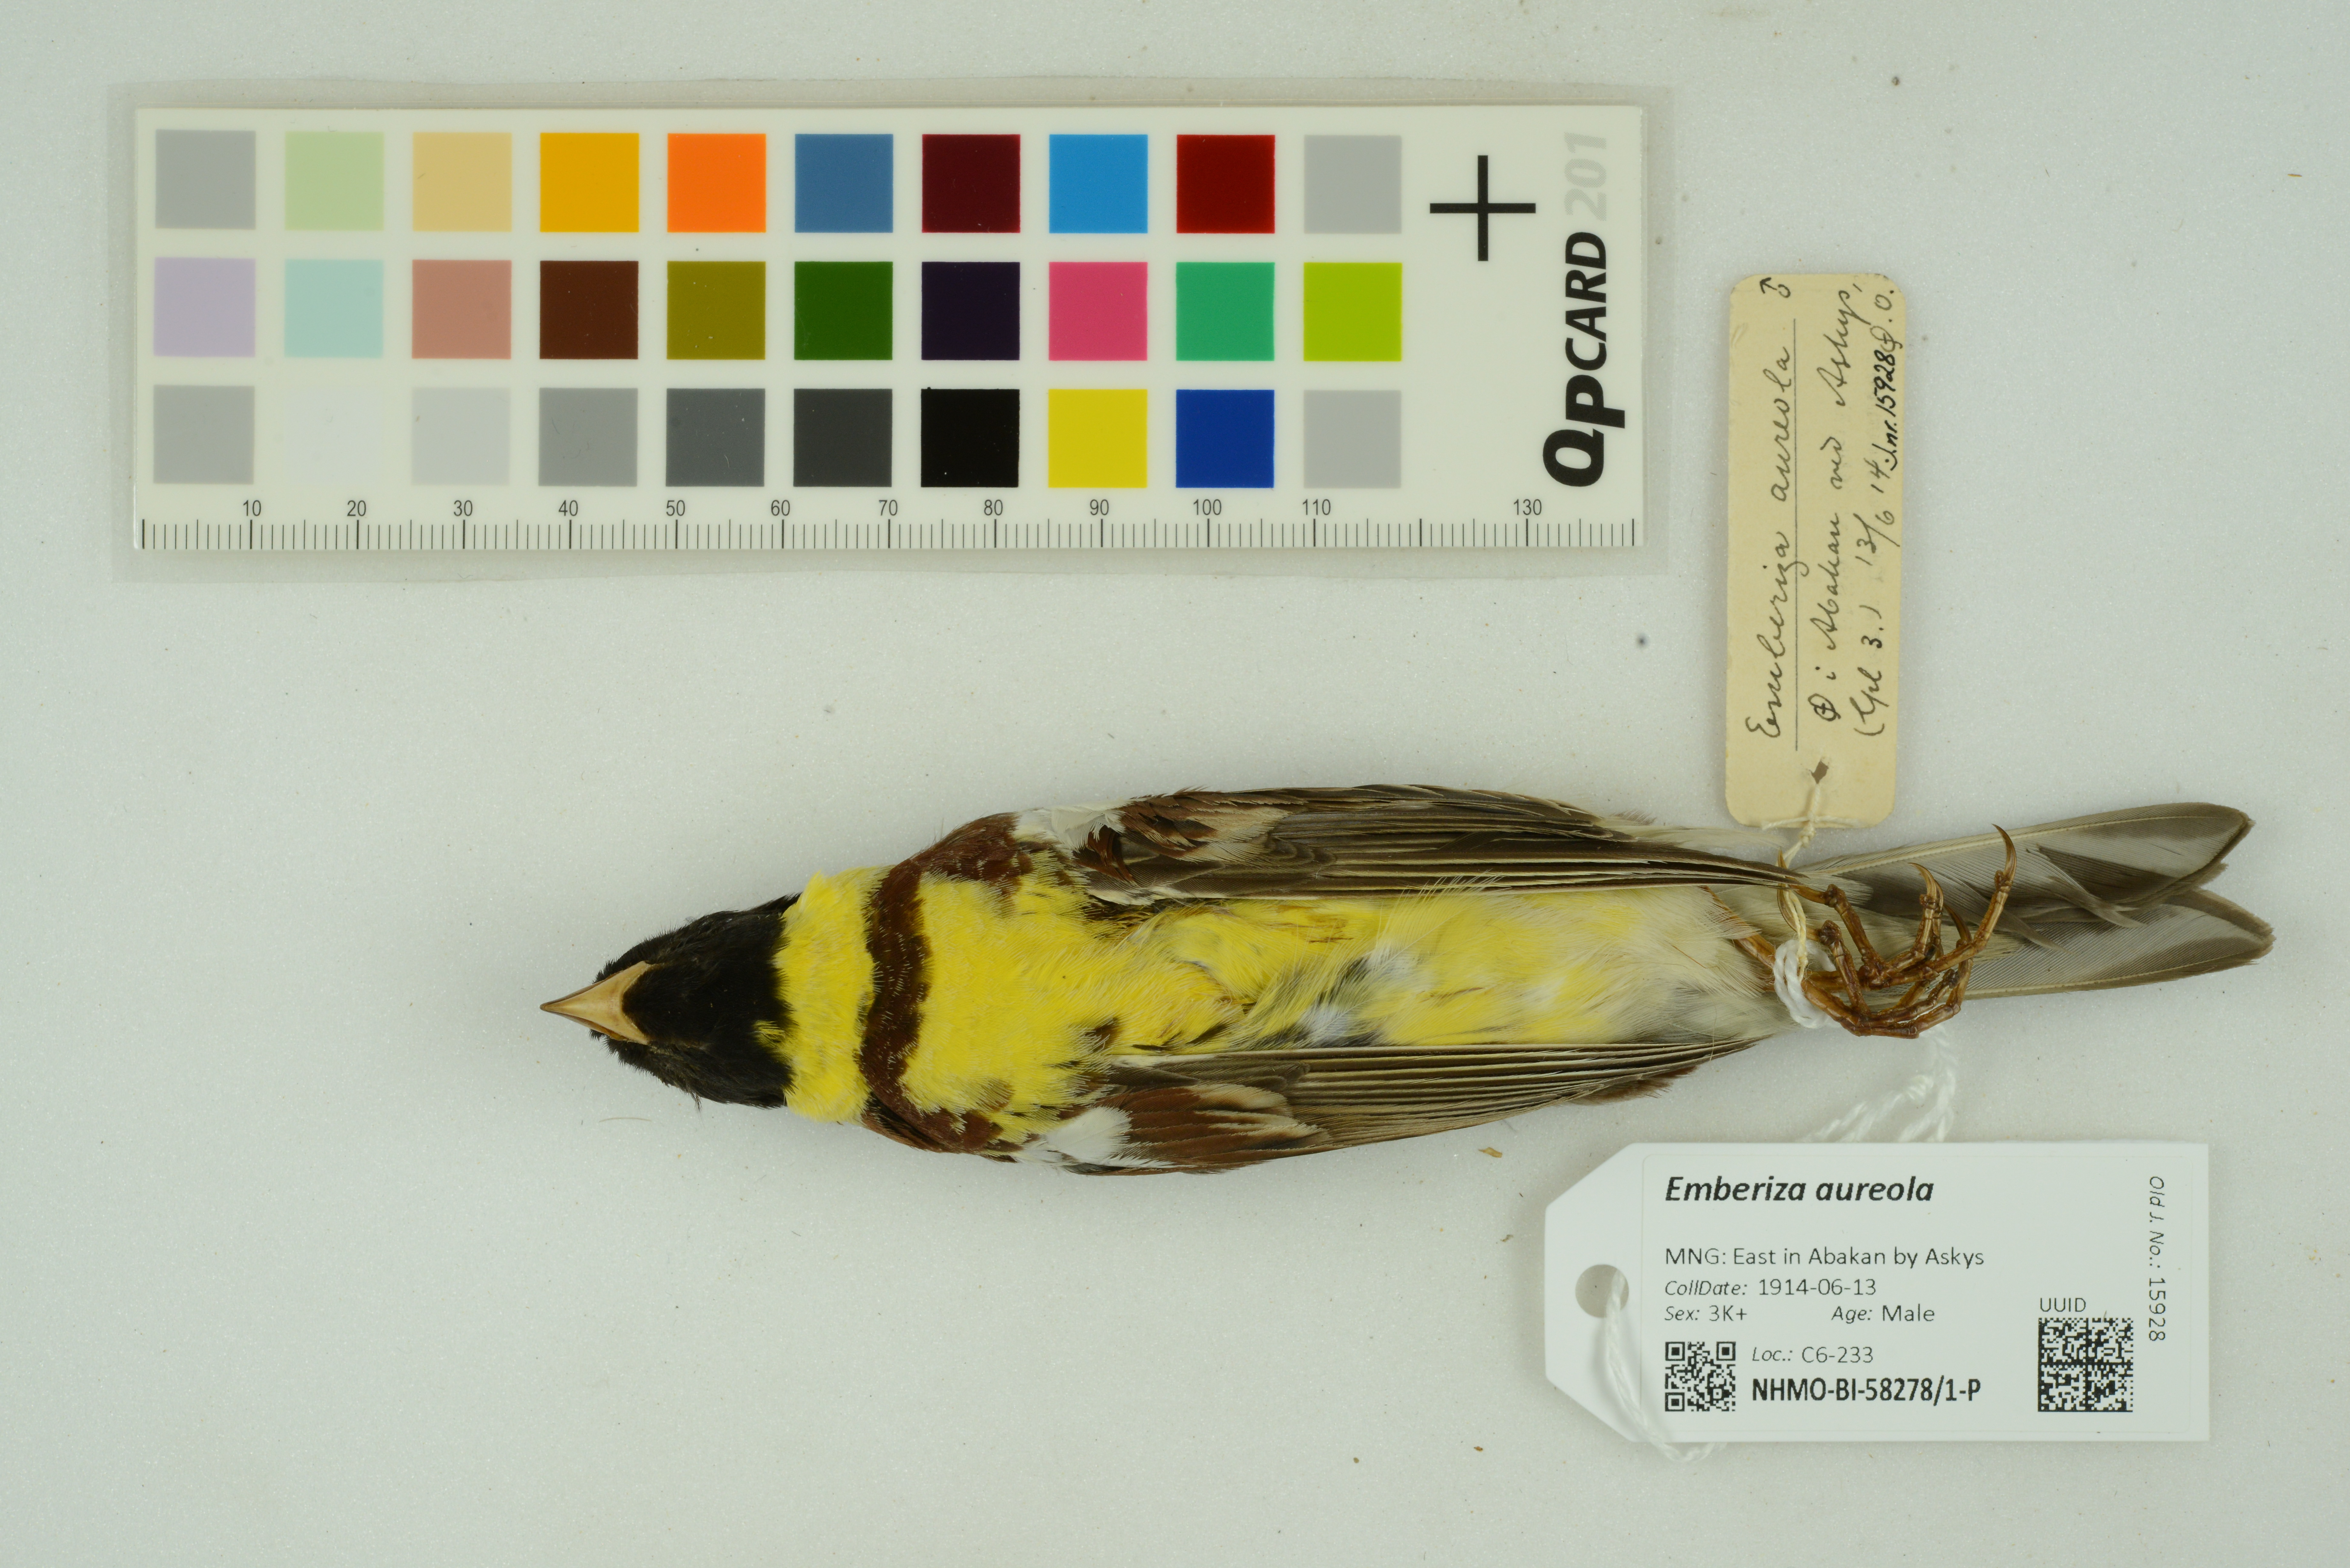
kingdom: Animalia
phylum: Chordata
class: Aves
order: Passeriformes
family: Emberizidae
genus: Emberiza
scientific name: Emberiza aureola
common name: Yellow-breasted bunting
